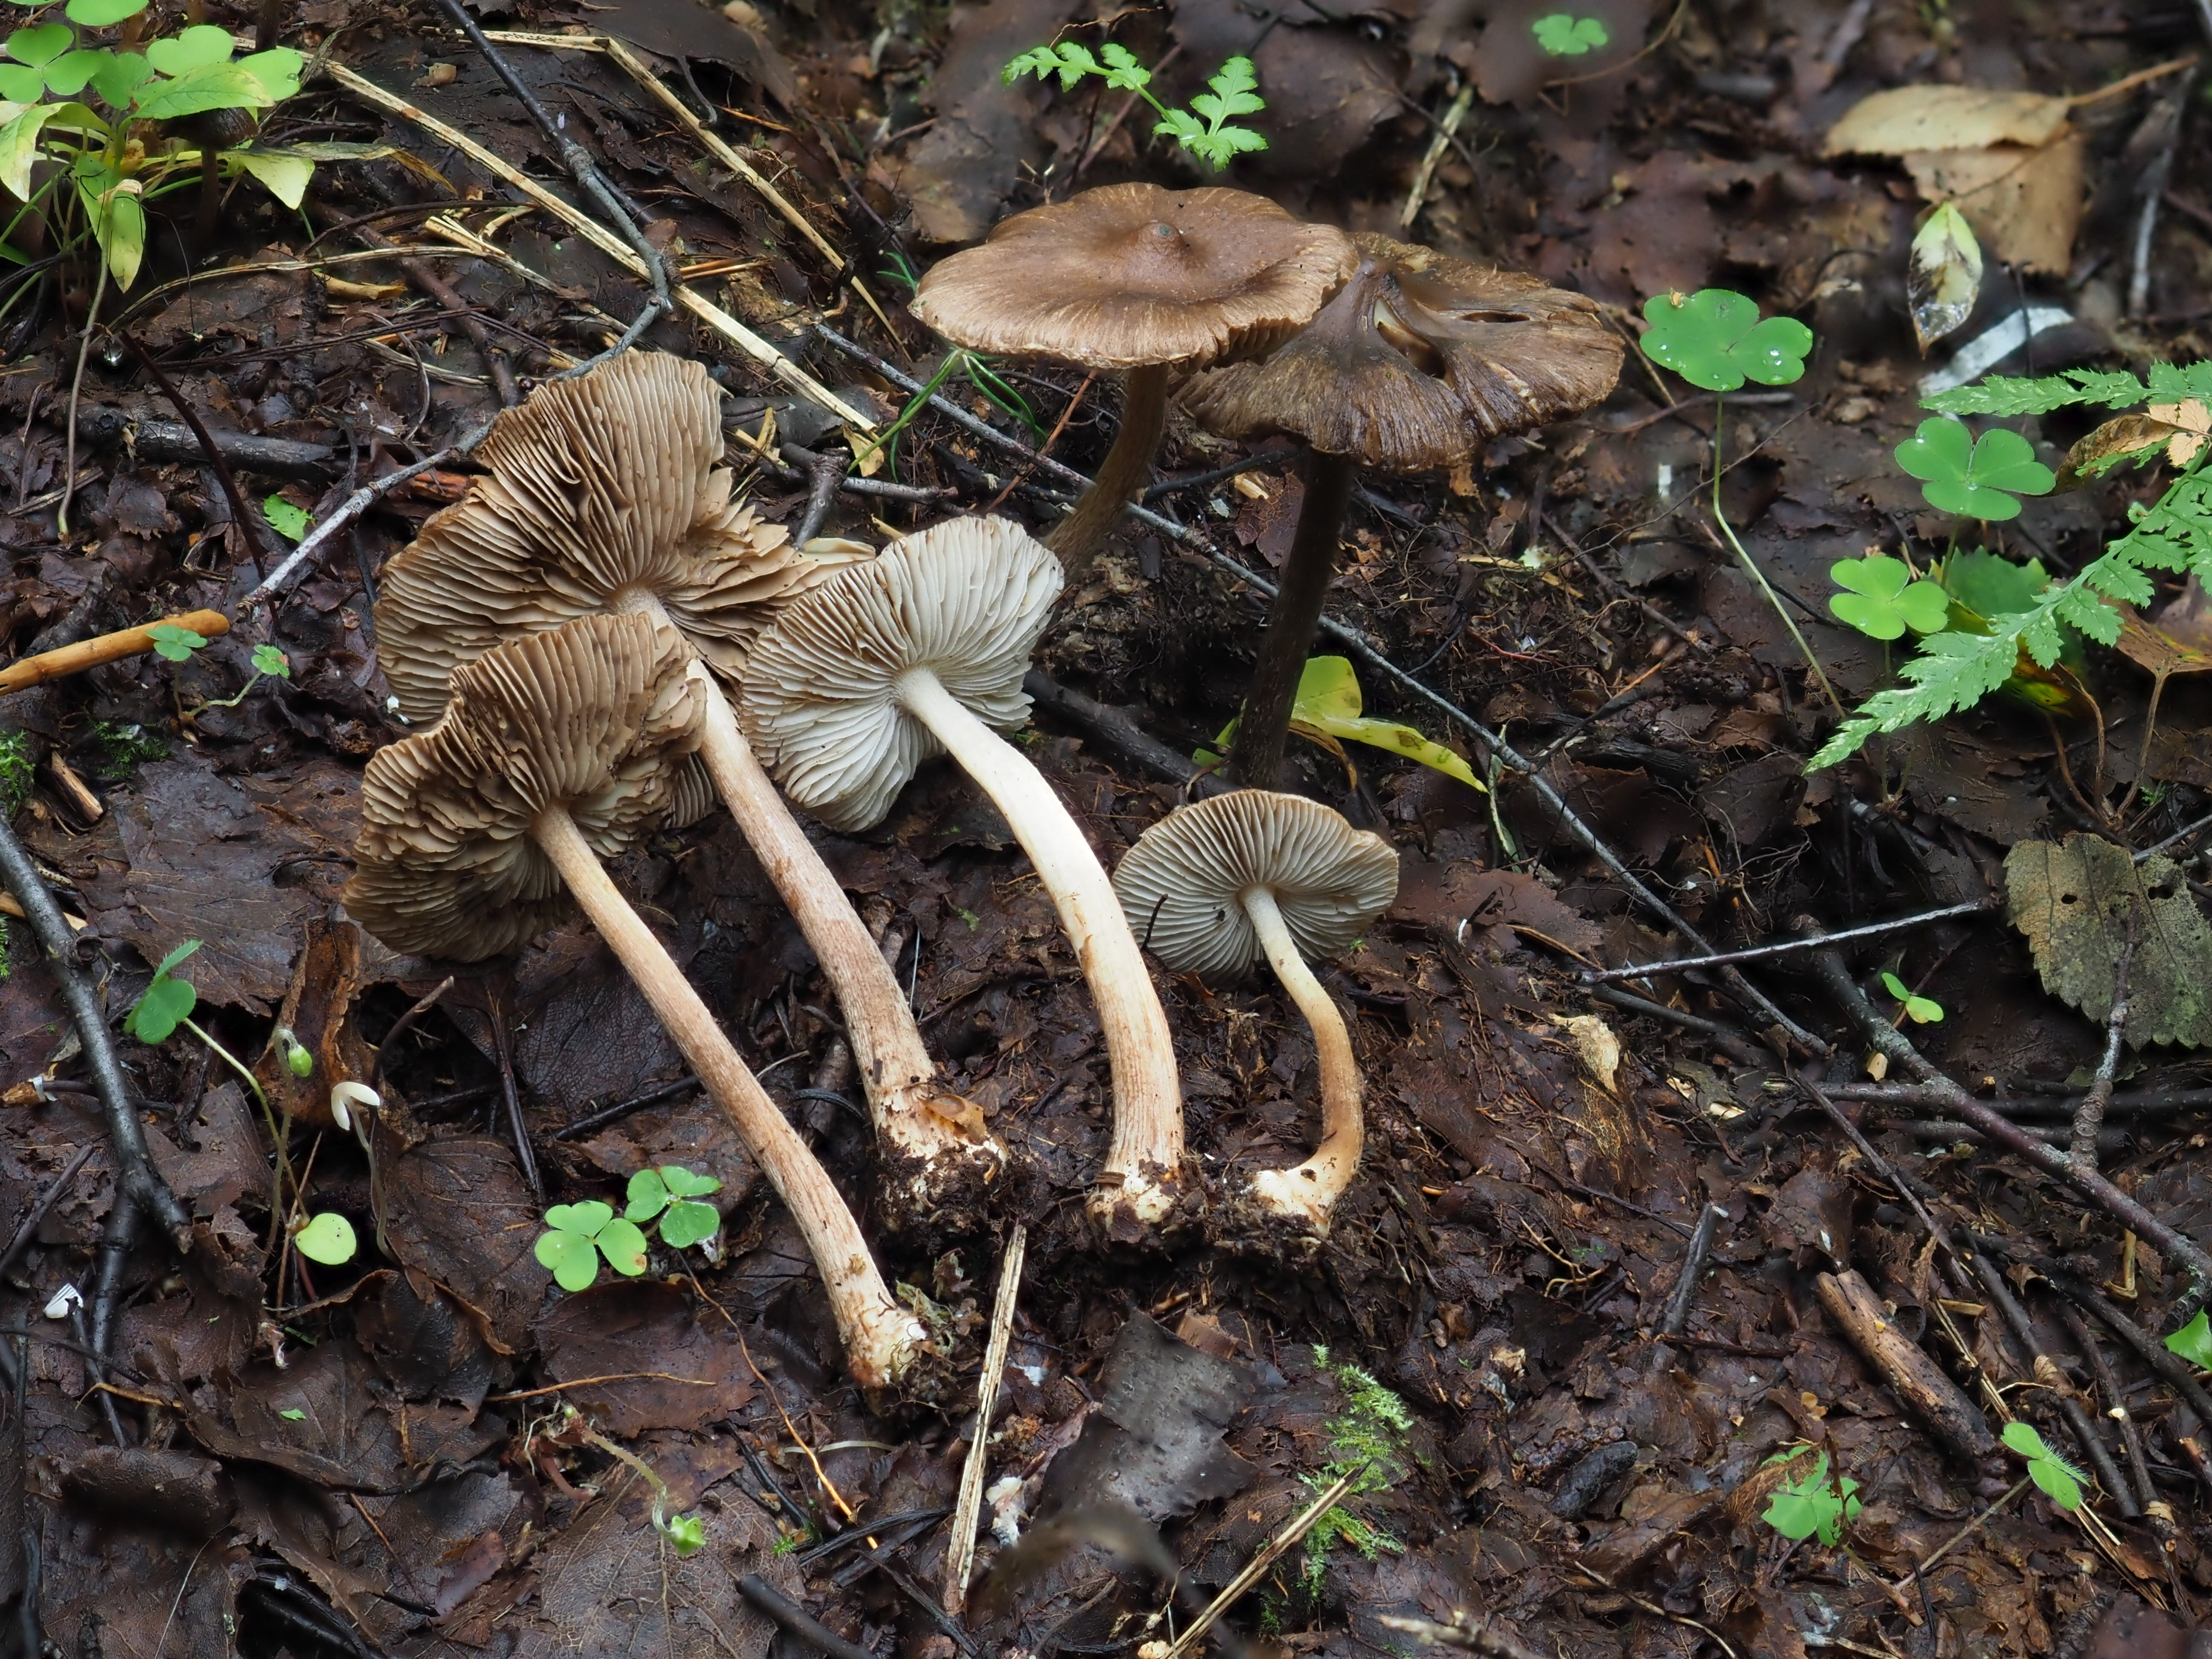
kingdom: Fungi
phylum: Basidiomycota
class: Agaricomycetes
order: Agaricales
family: Inocybaceae
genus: Inocybe
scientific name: Inocybe napipes
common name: Bulbous fibrecap
